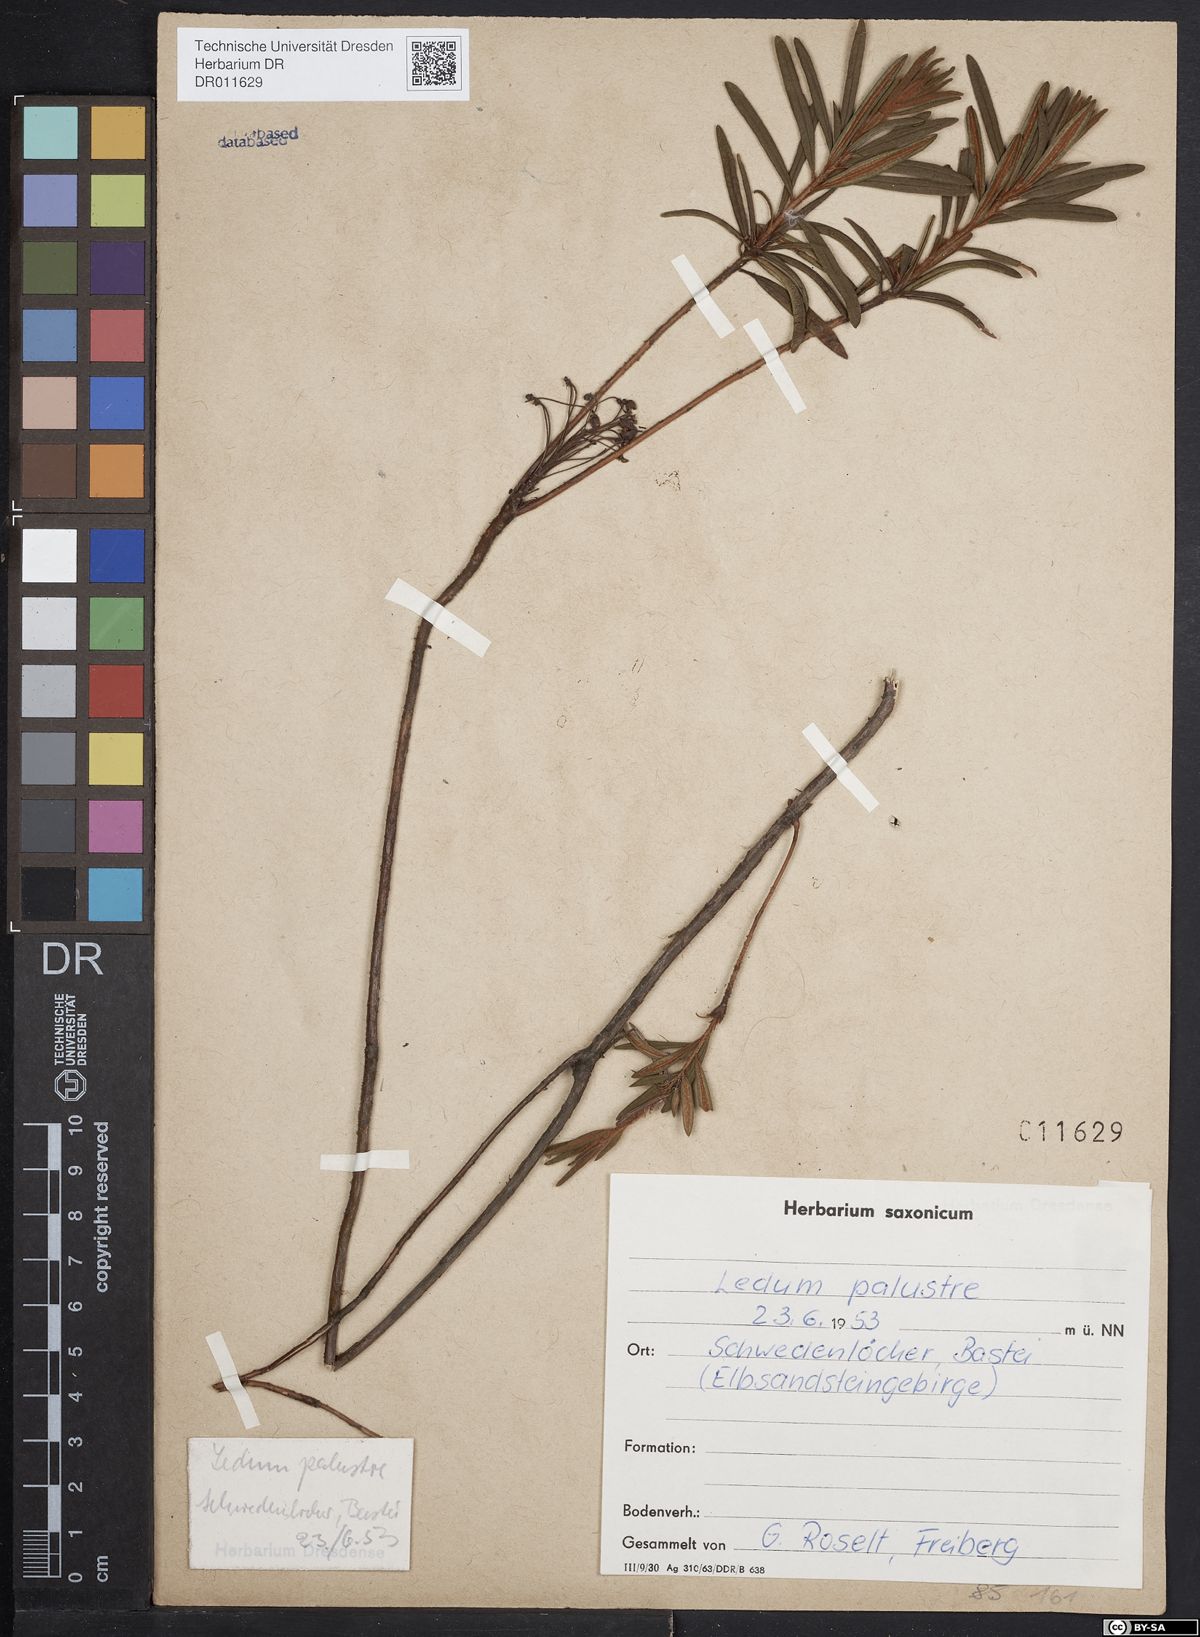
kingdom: Plantae
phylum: Tracheophyta
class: Magnoliopsida
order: Ericales
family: Ericaceae
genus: Rhododendron
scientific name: Rhododendron tomentosum
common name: Marsh labrador tea
